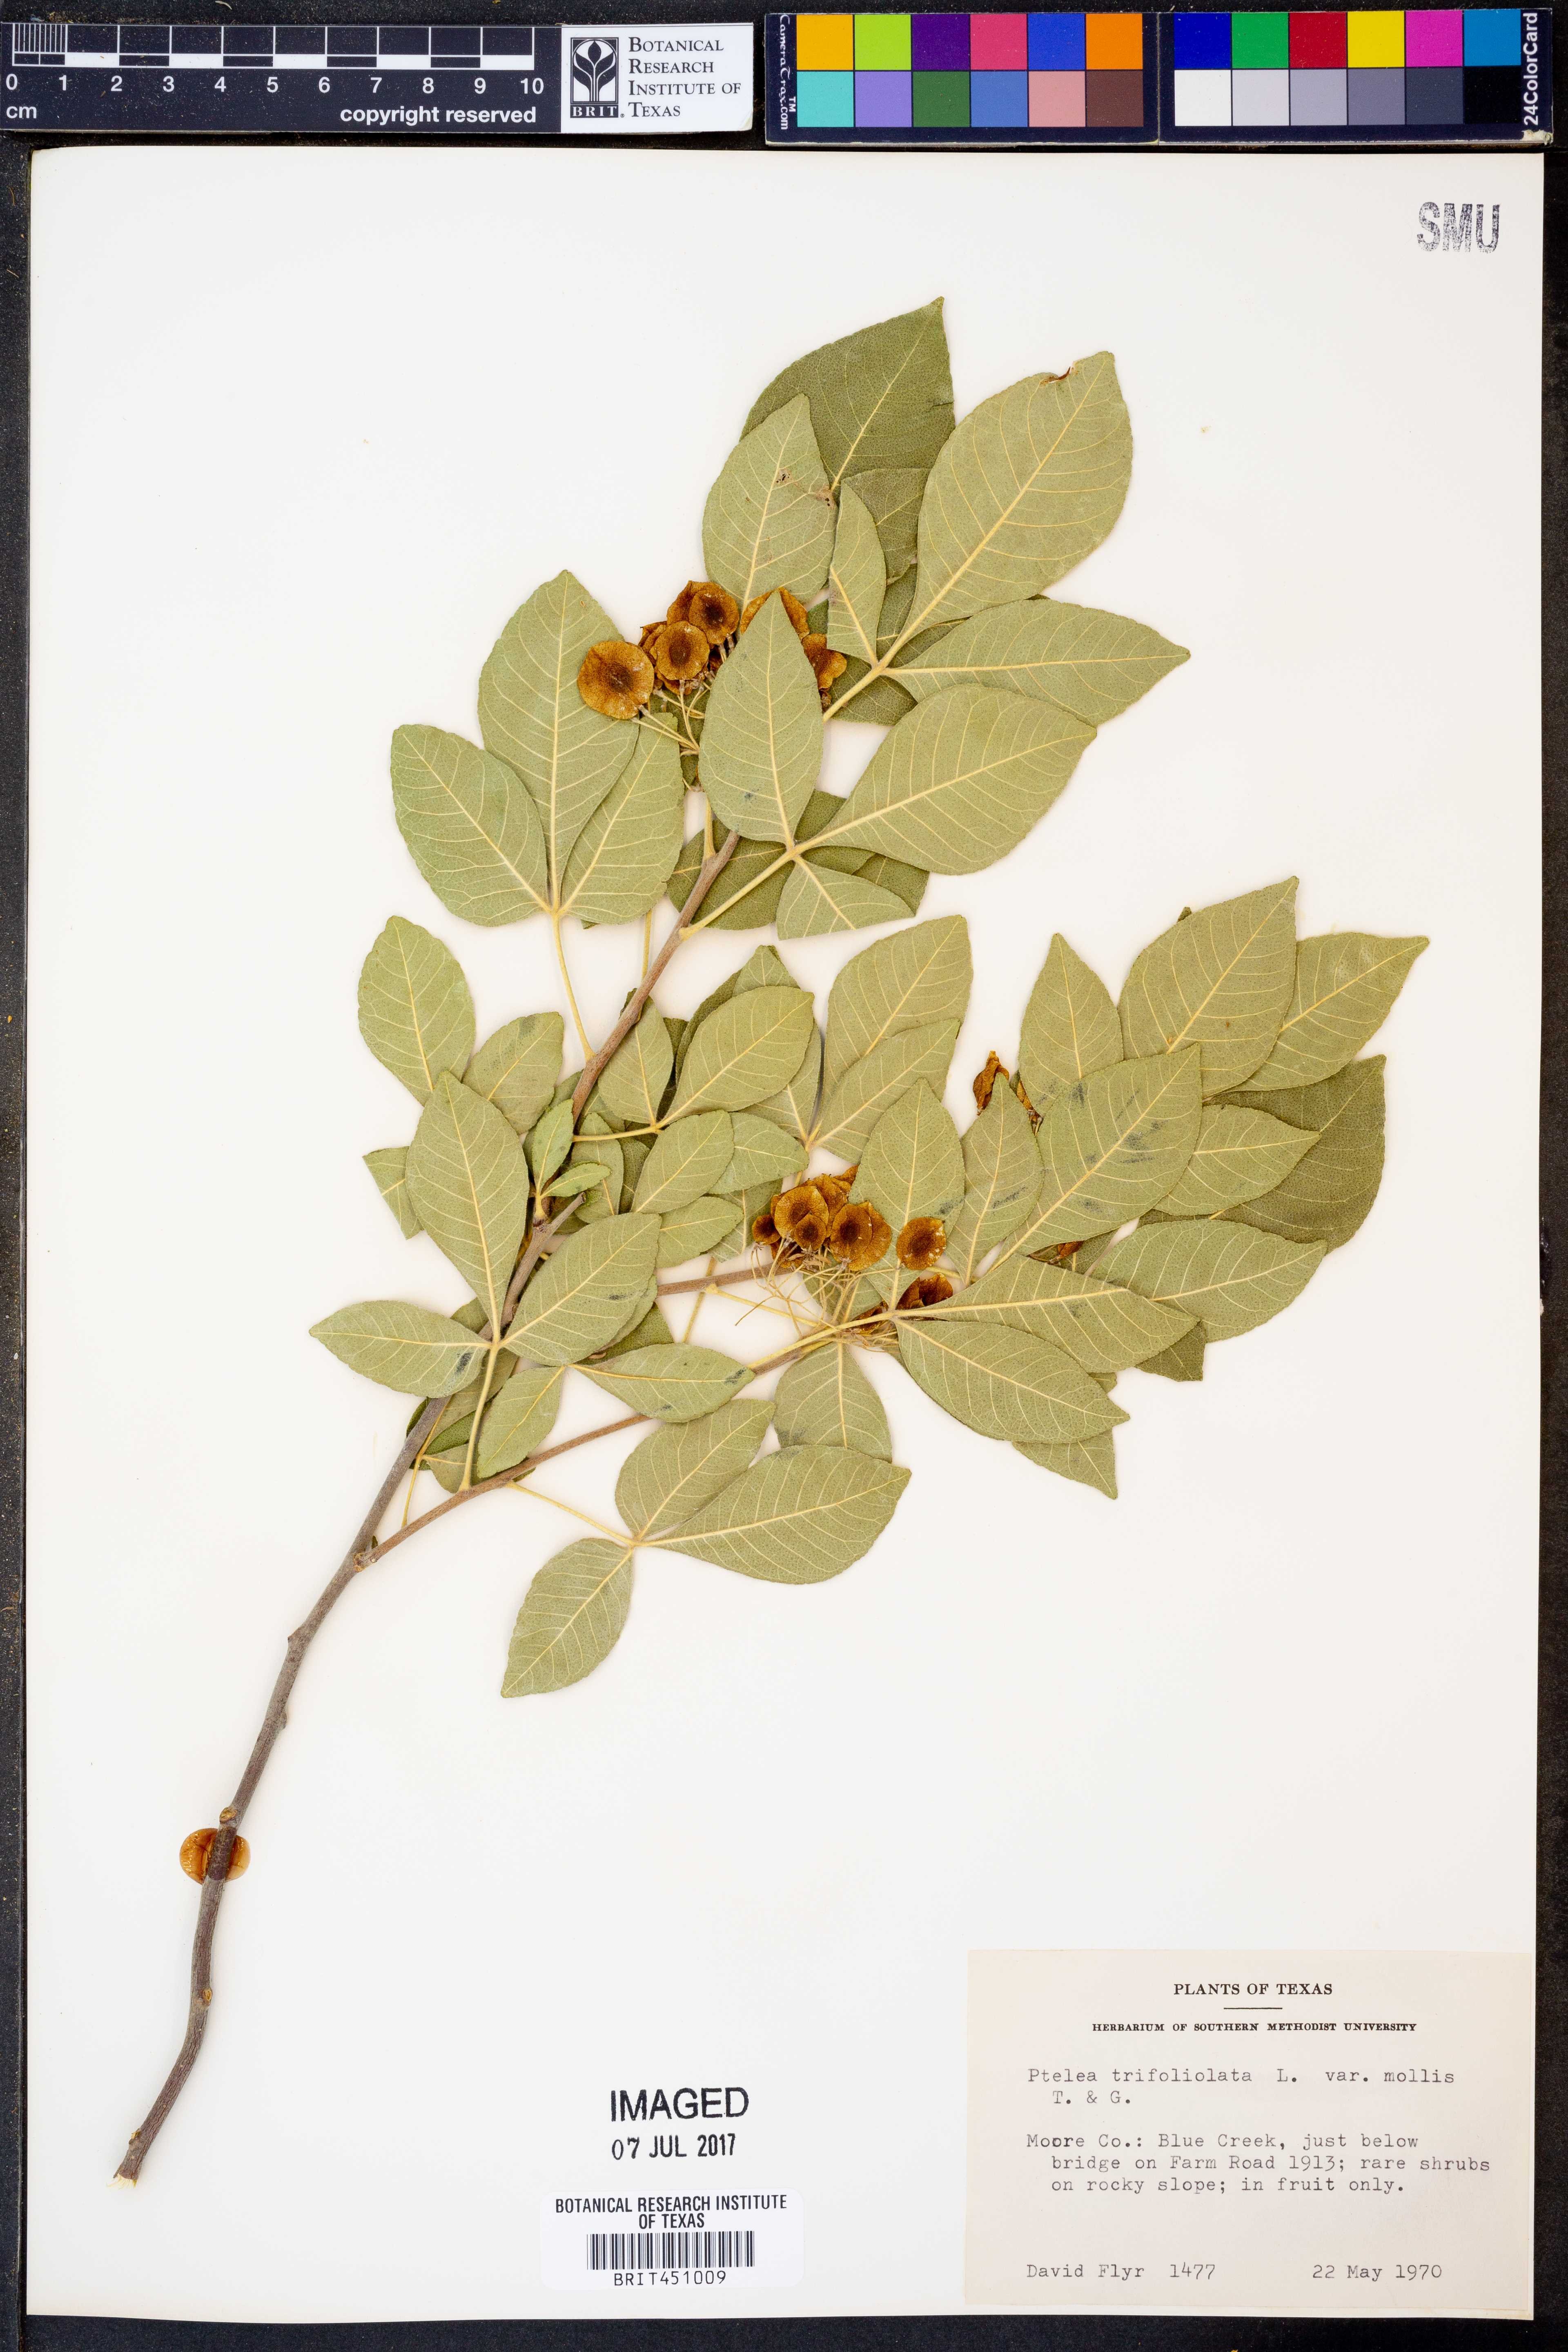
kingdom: Plantae
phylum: Tracheophyta
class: Magnoliopsida
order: Sapindales
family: Rutaceae
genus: Ptelea
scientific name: Ptelea trifoliata
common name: Common hop-tree
